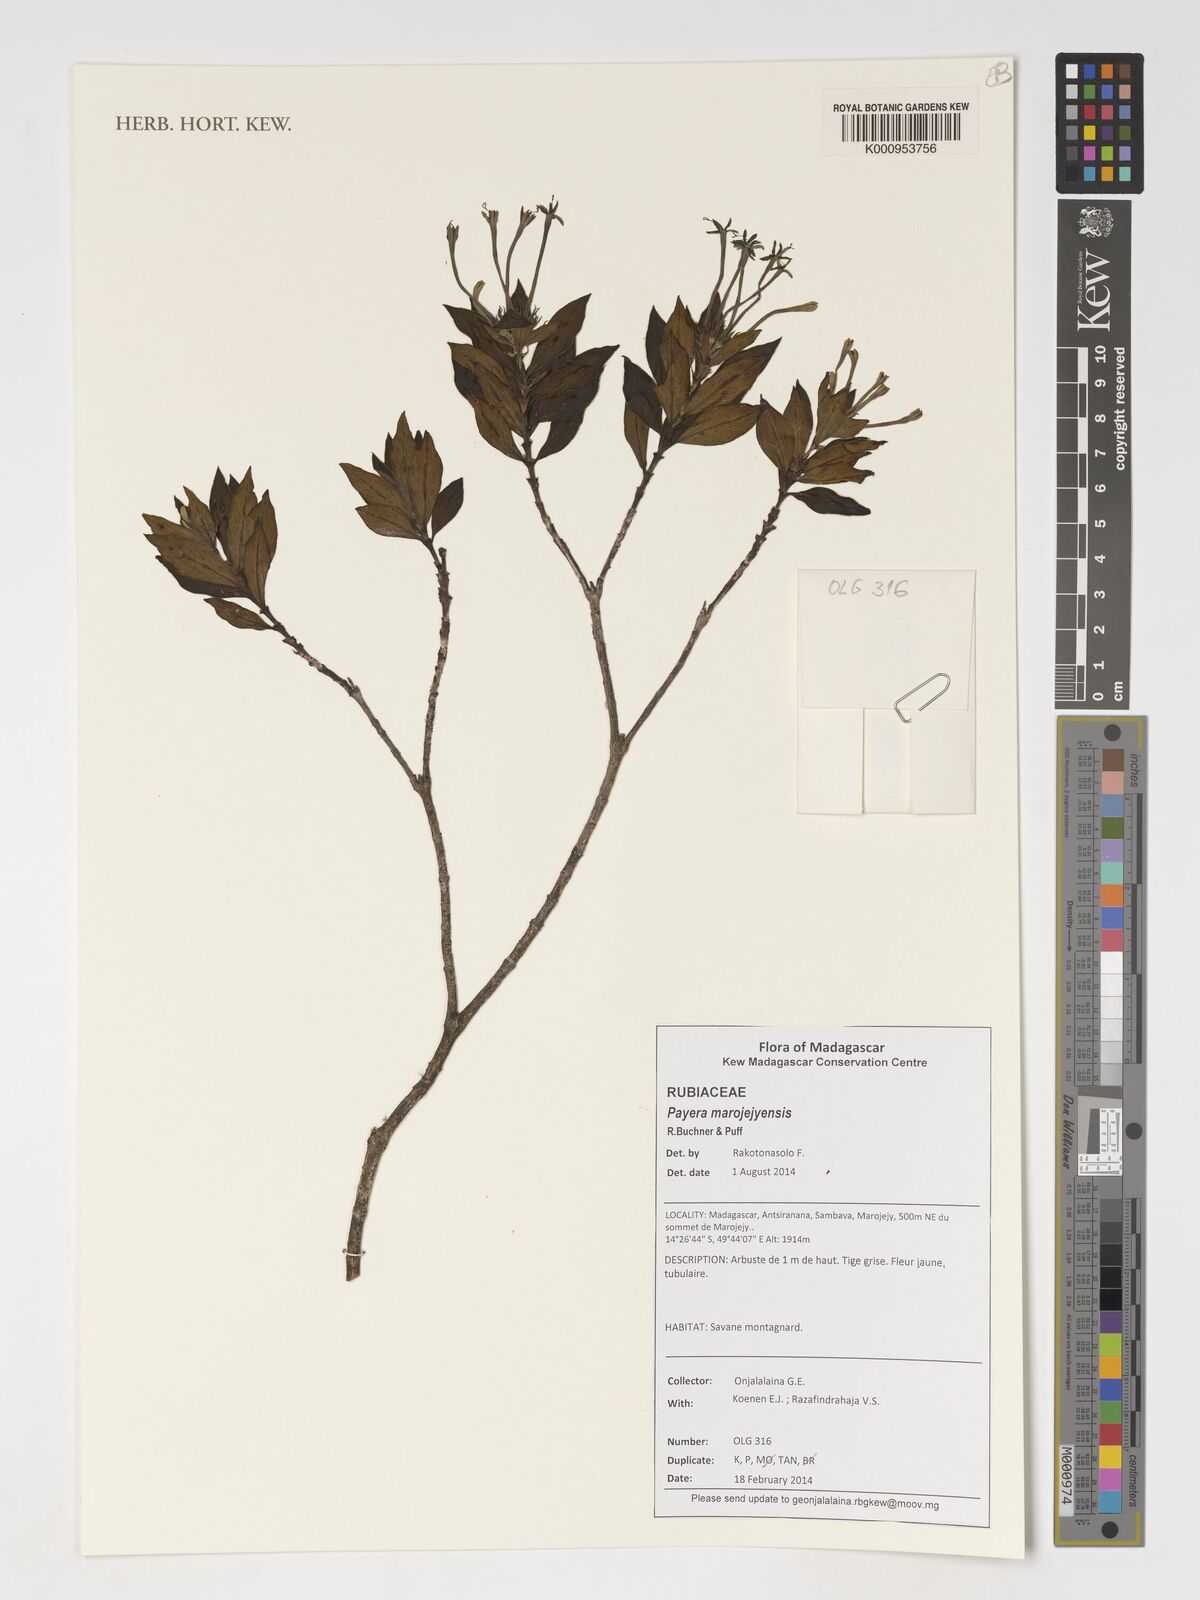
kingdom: Plantae
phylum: Tracheophyta
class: Magnoliopsida
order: Gentianales
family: Rubiaceae
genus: Payera
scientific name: Payera marojejyensis
